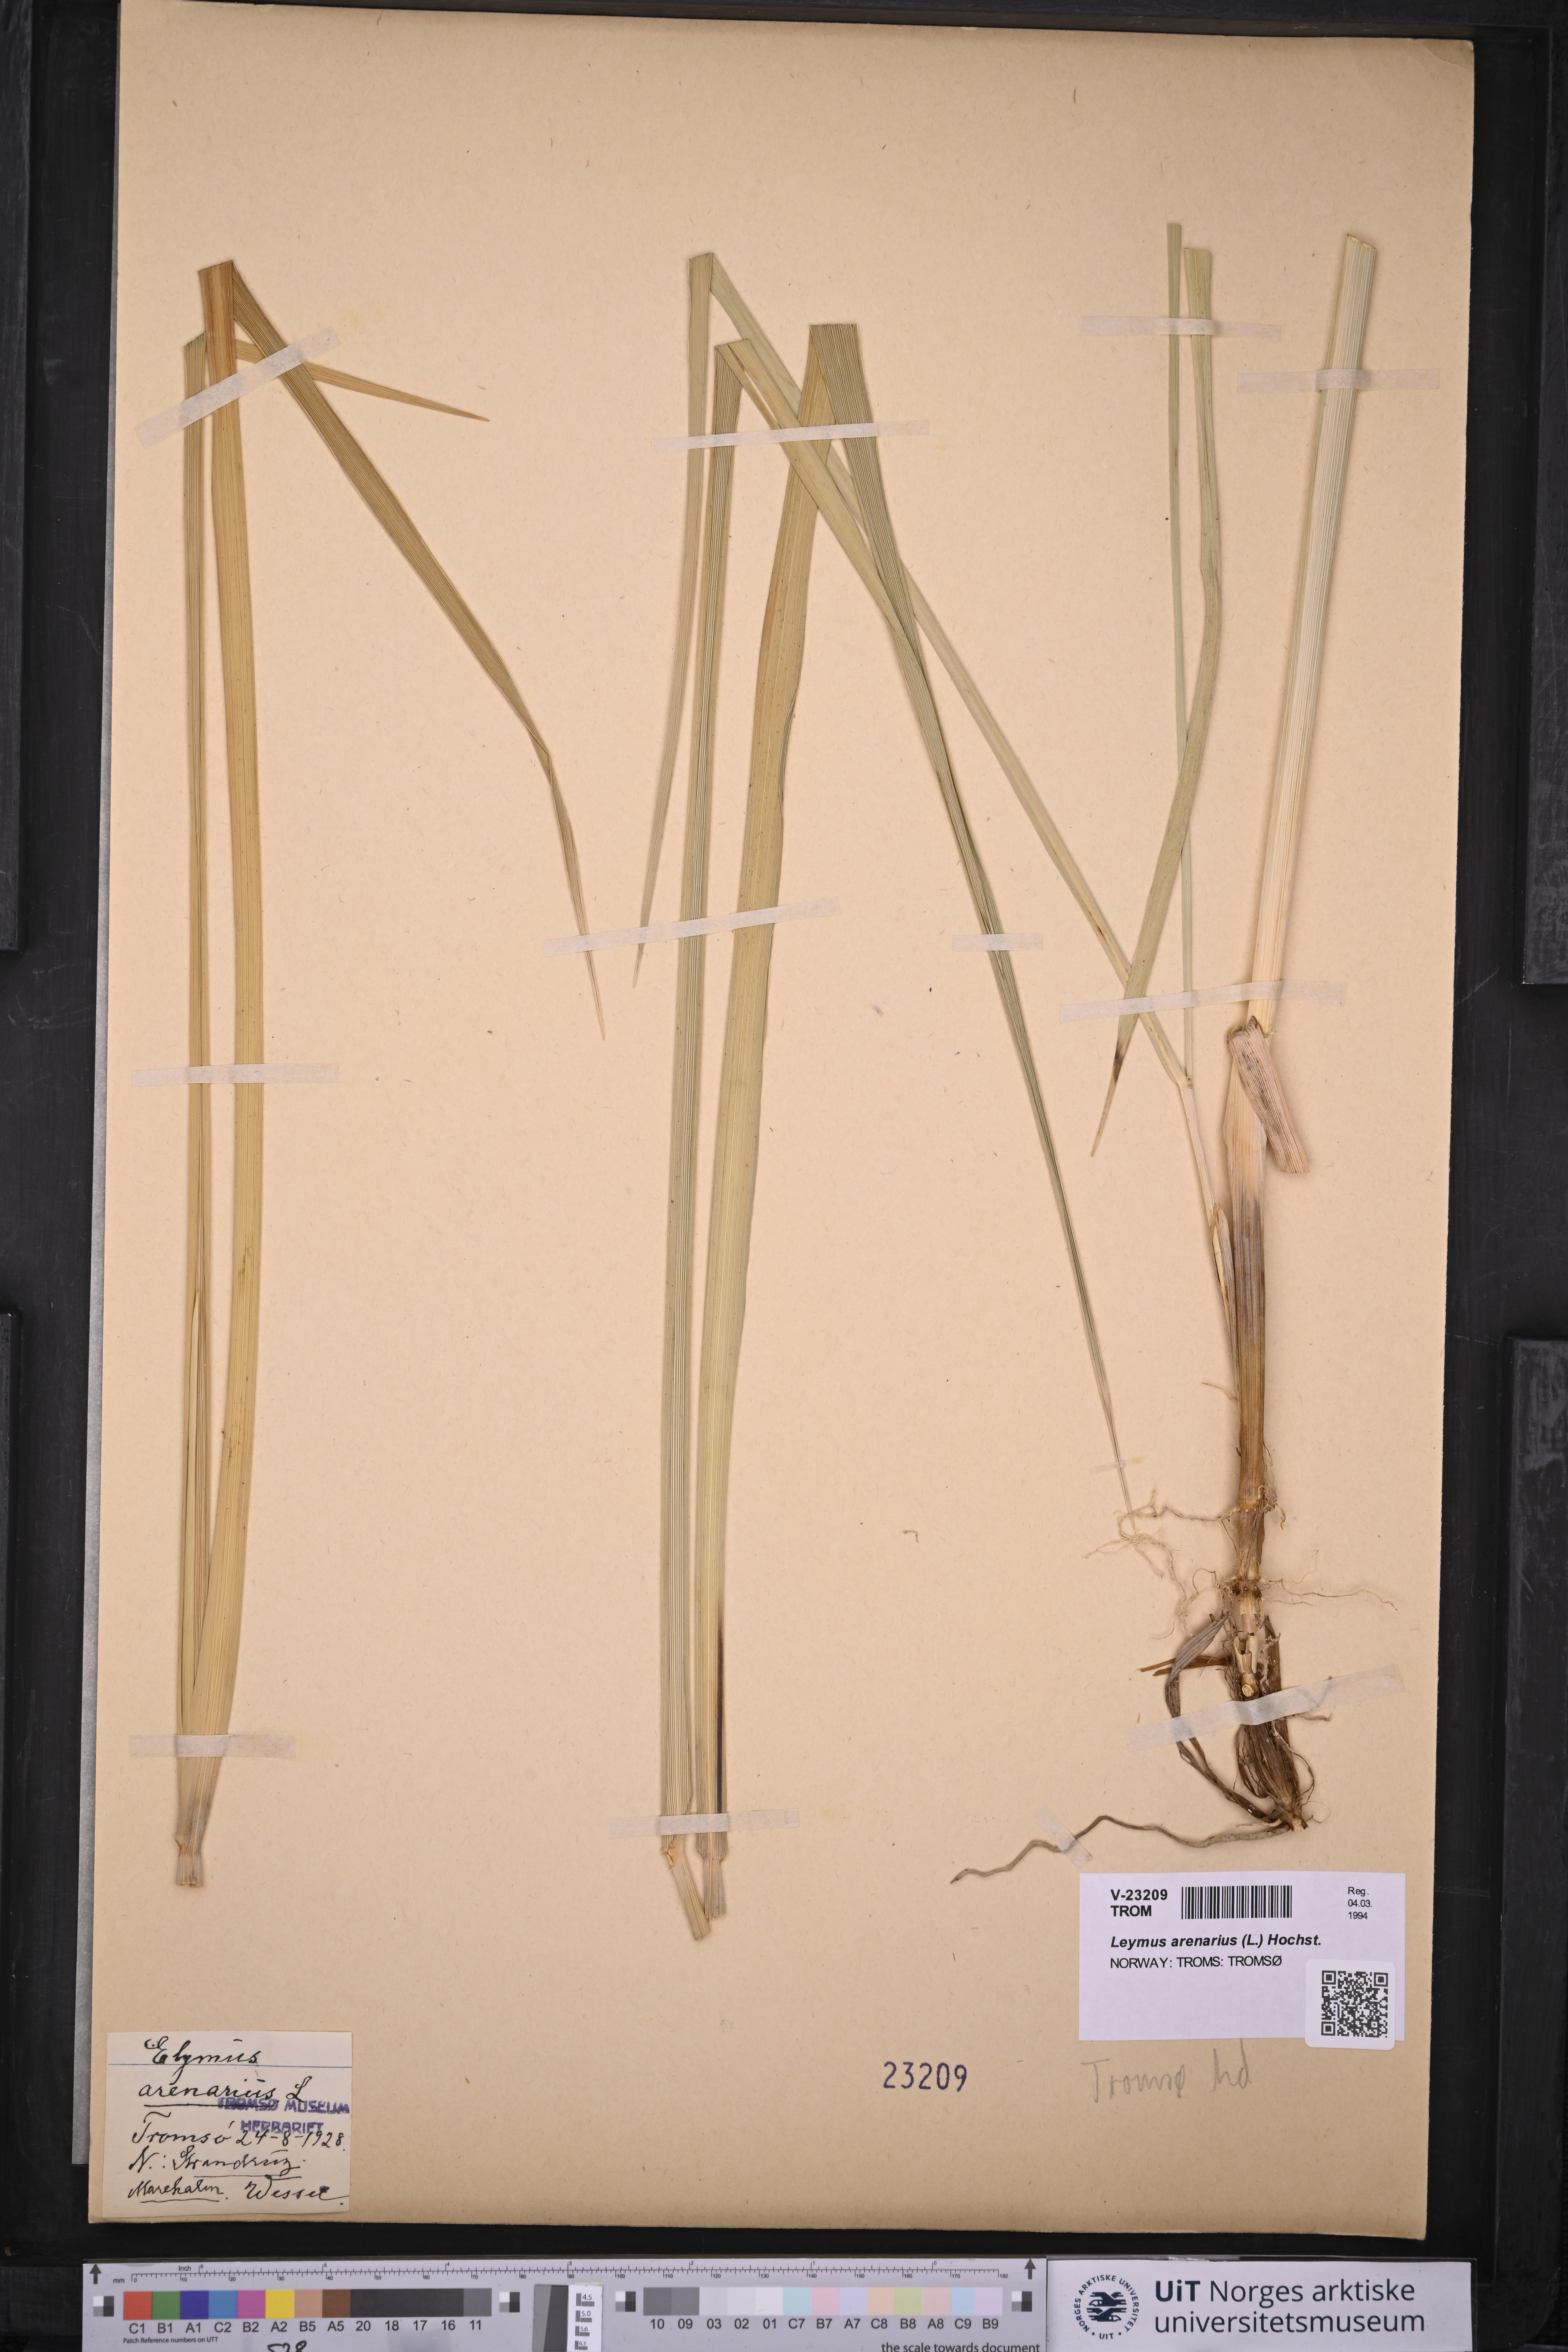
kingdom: Plantae
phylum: Tracheophyta
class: Liliopsida
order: Poales
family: Poaceae
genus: Leymus
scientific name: Leymus arenarius
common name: Lyme-grass
